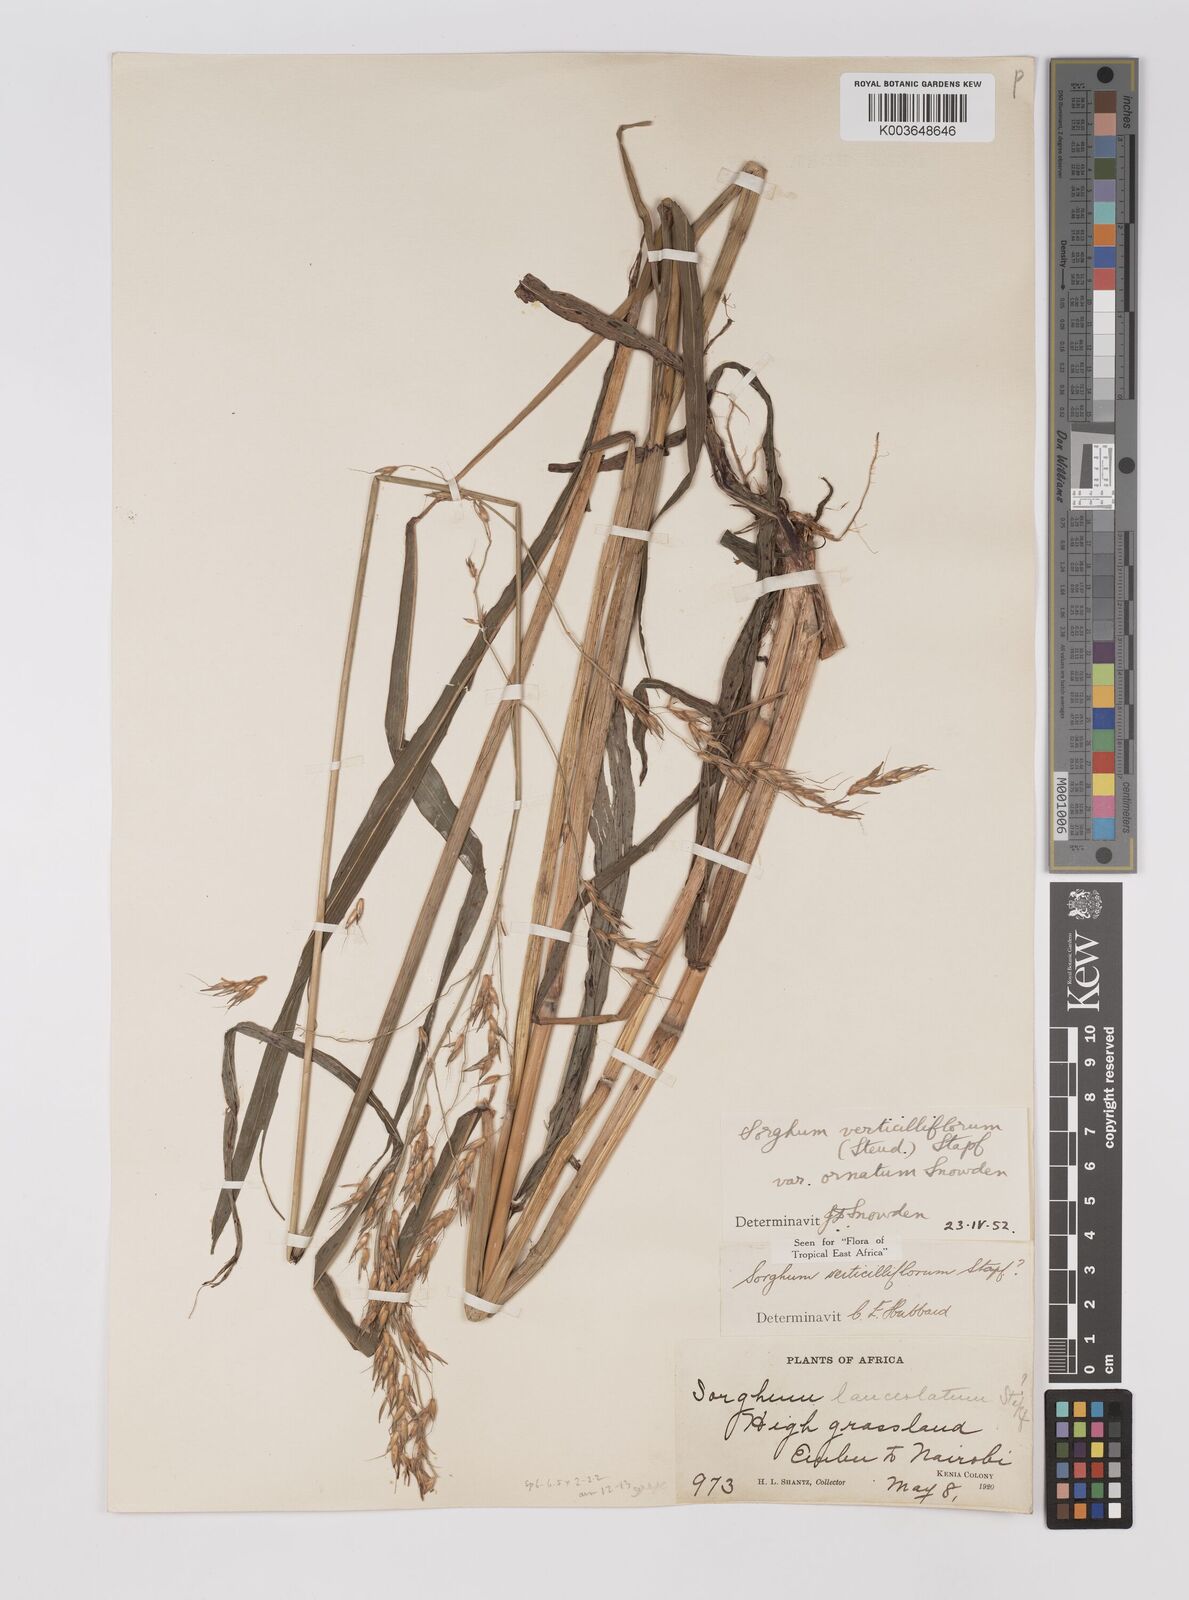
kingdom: Plantae
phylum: Tracheophyta
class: Liliopsida
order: Poales
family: Poaceae
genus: Sorghum
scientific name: Sorghum arundinaceum
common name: Sorghum
